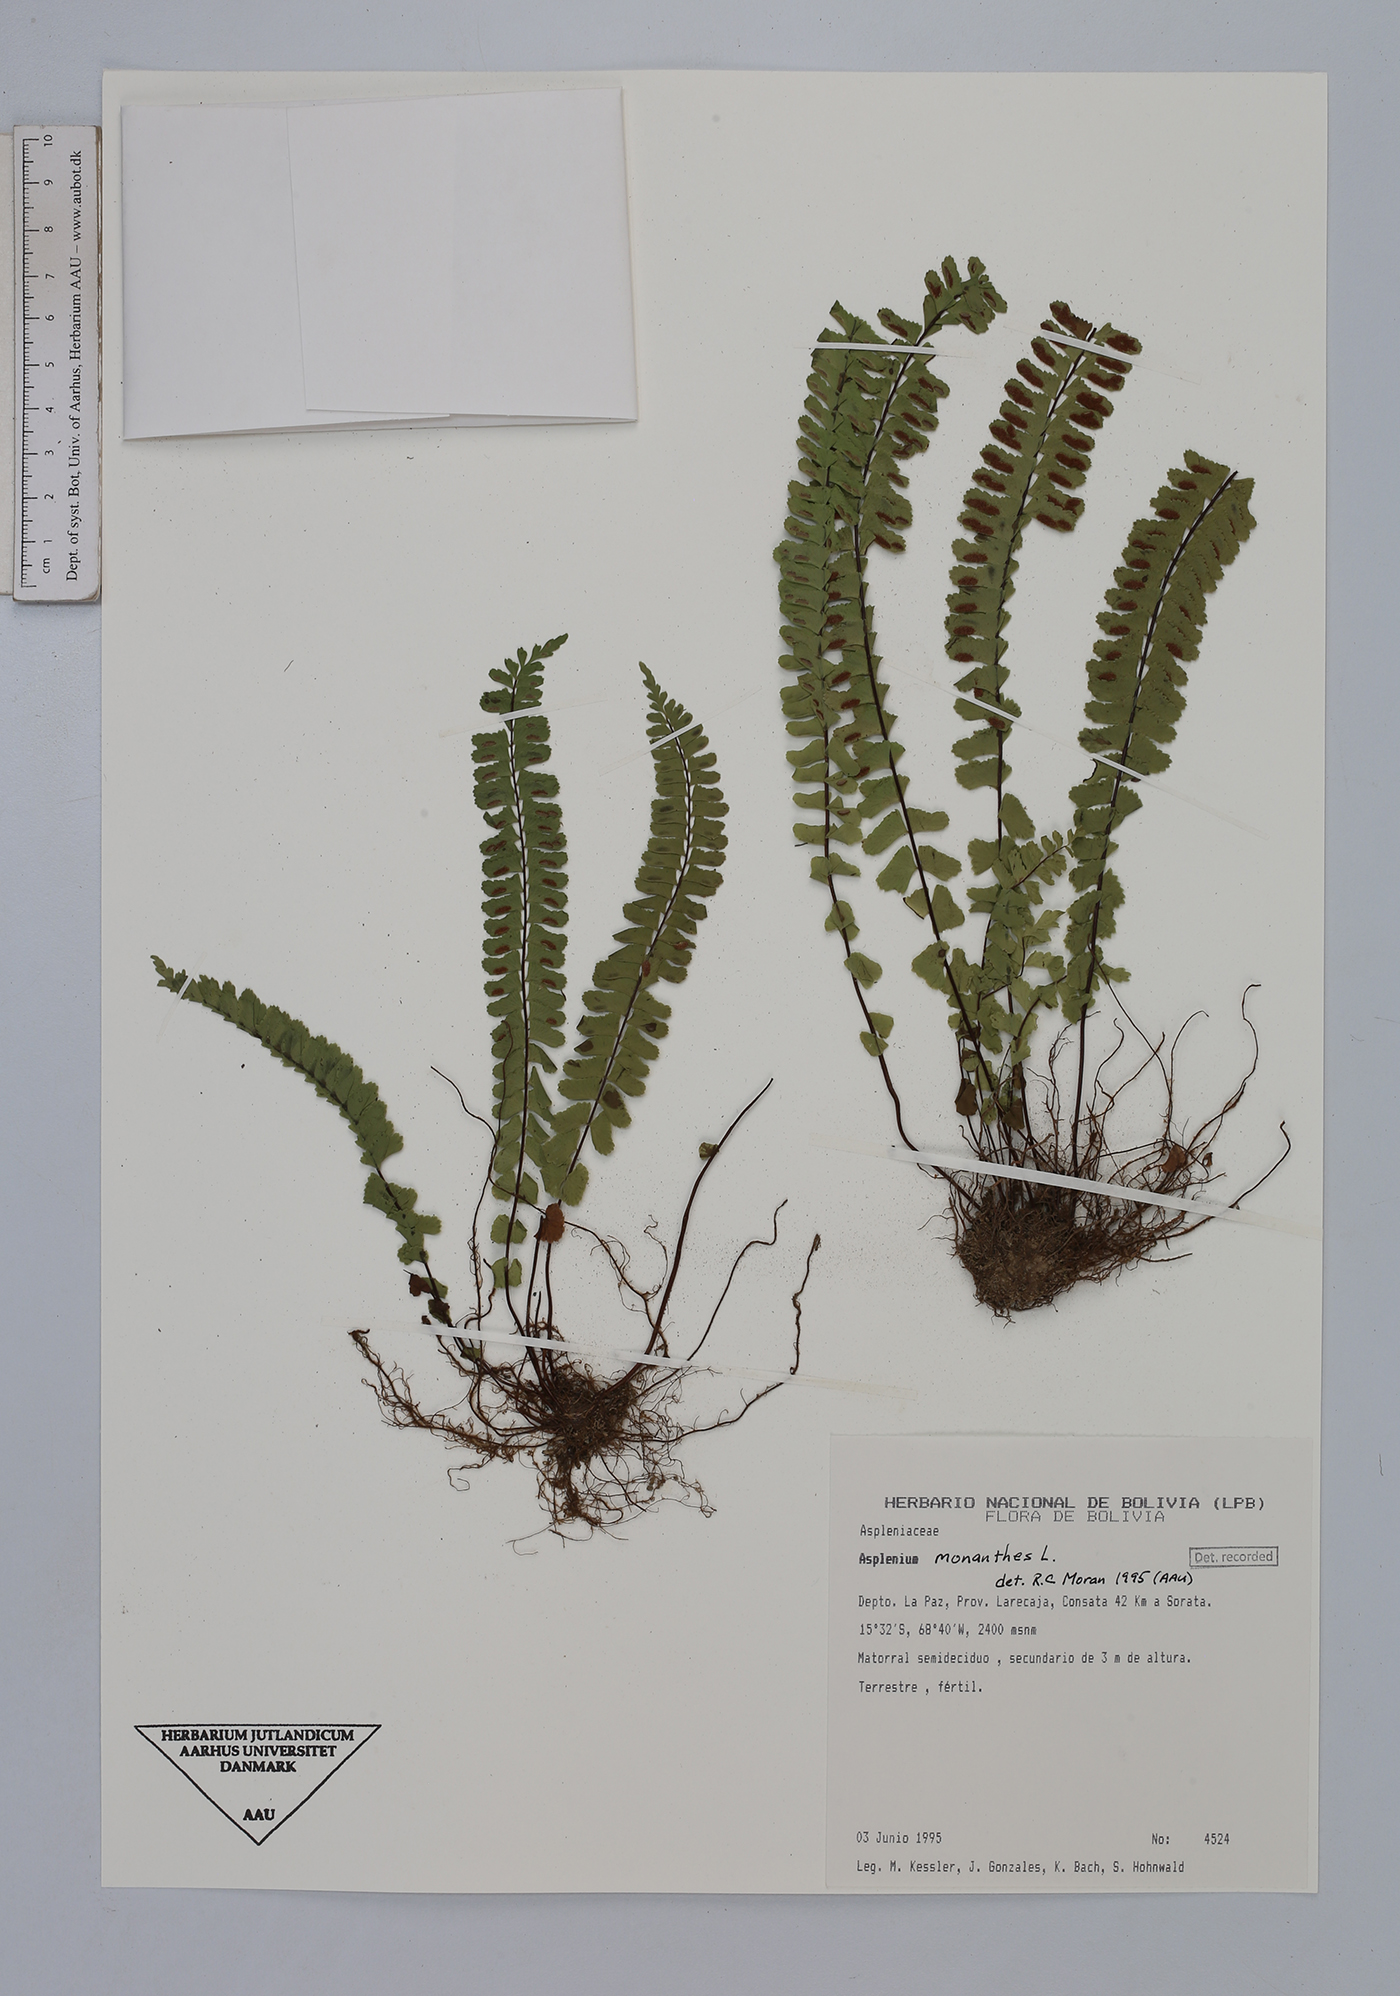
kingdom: Plantae
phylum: Tracheophyta
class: Polypodiopsida
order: Polypodiales
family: Aspleniaceae
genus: Asplenium
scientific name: Asplenium monanthes
